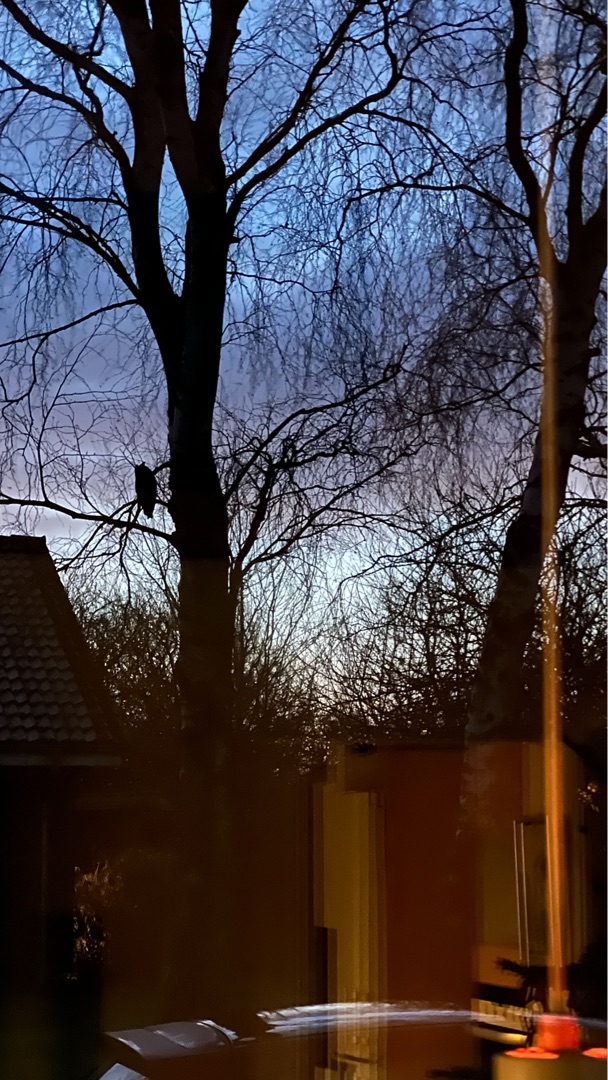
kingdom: Animalia
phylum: Chordata
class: Aves
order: Strigiformes
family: Strigidae
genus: Asio
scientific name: Asio otus
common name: Skovhornugle
